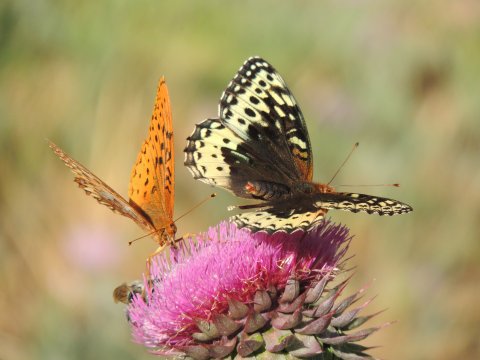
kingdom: Animalia
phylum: Arthropoda
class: Insecta
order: Lepidoptera
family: Nymphalidae
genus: Speyeria
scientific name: Speyeria cybele
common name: Great Spangled Fritillary
